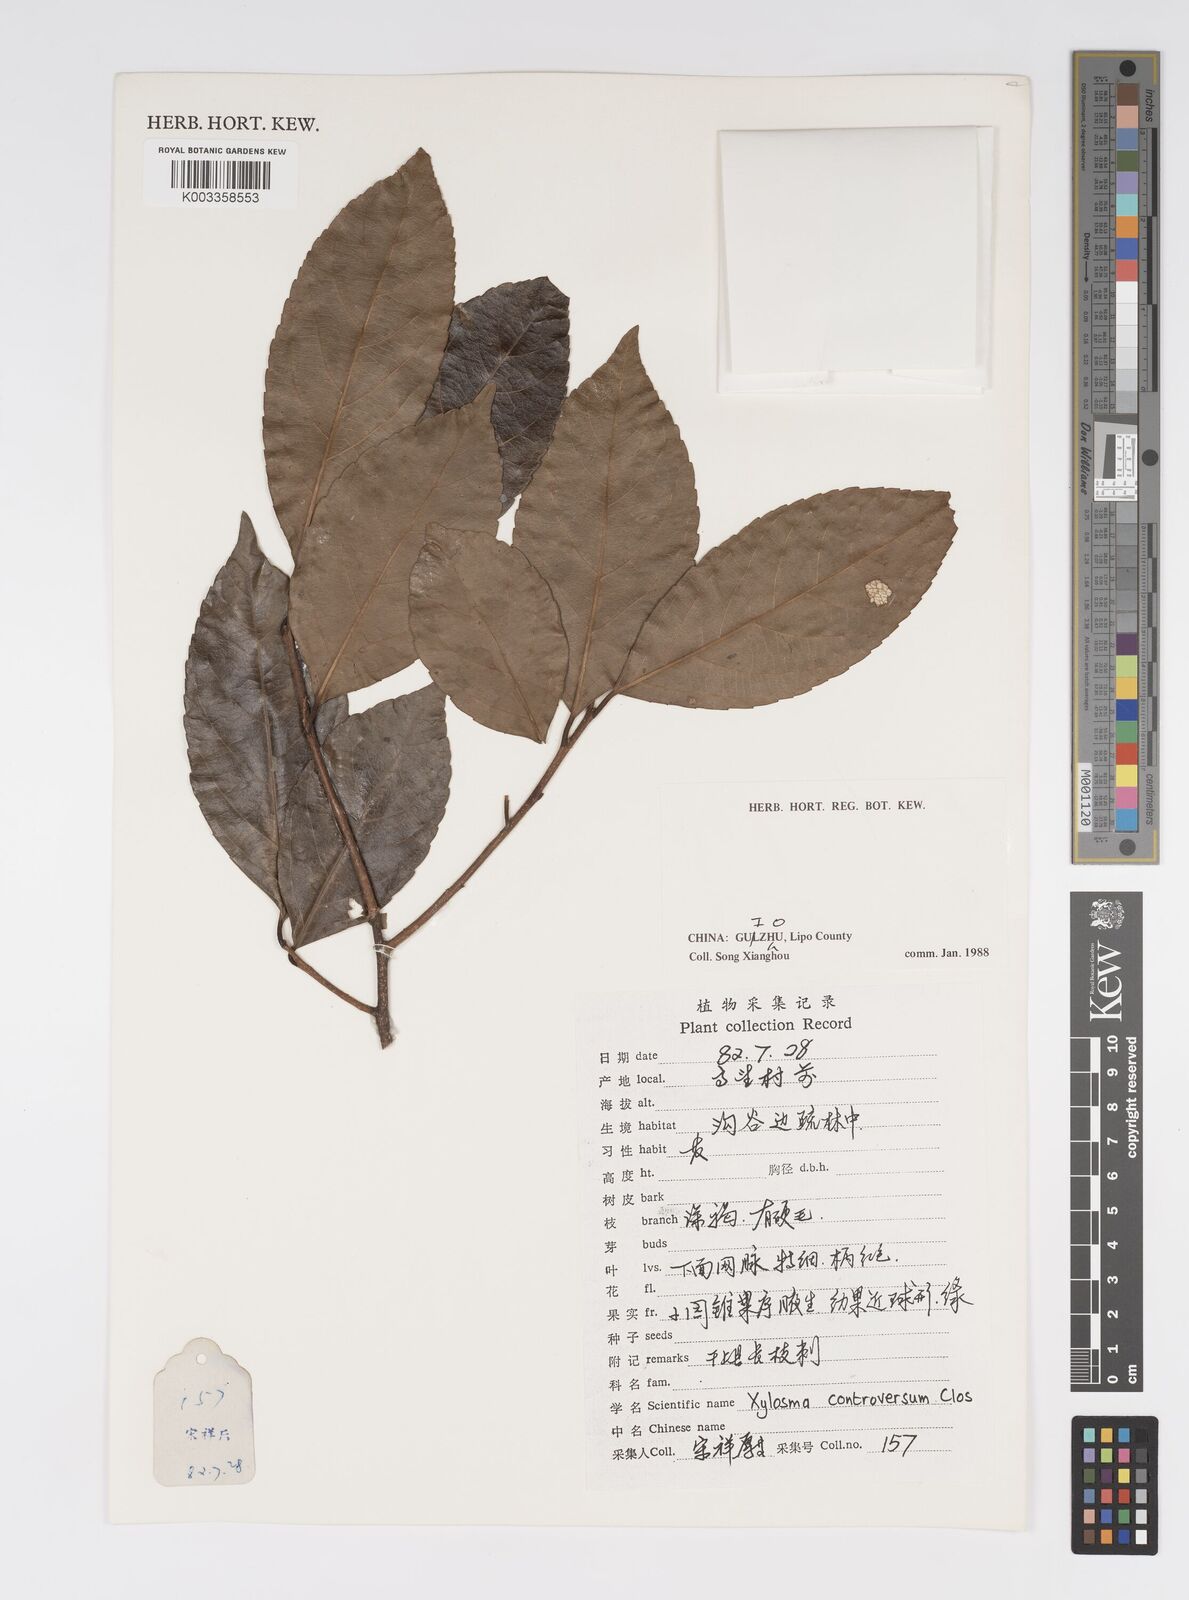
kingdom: Plantae
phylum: Tracheophyta
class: Magnoliopsida
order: Malpighiales
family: Salicaceae
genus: Xylosma
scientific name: Xylosma controversa
